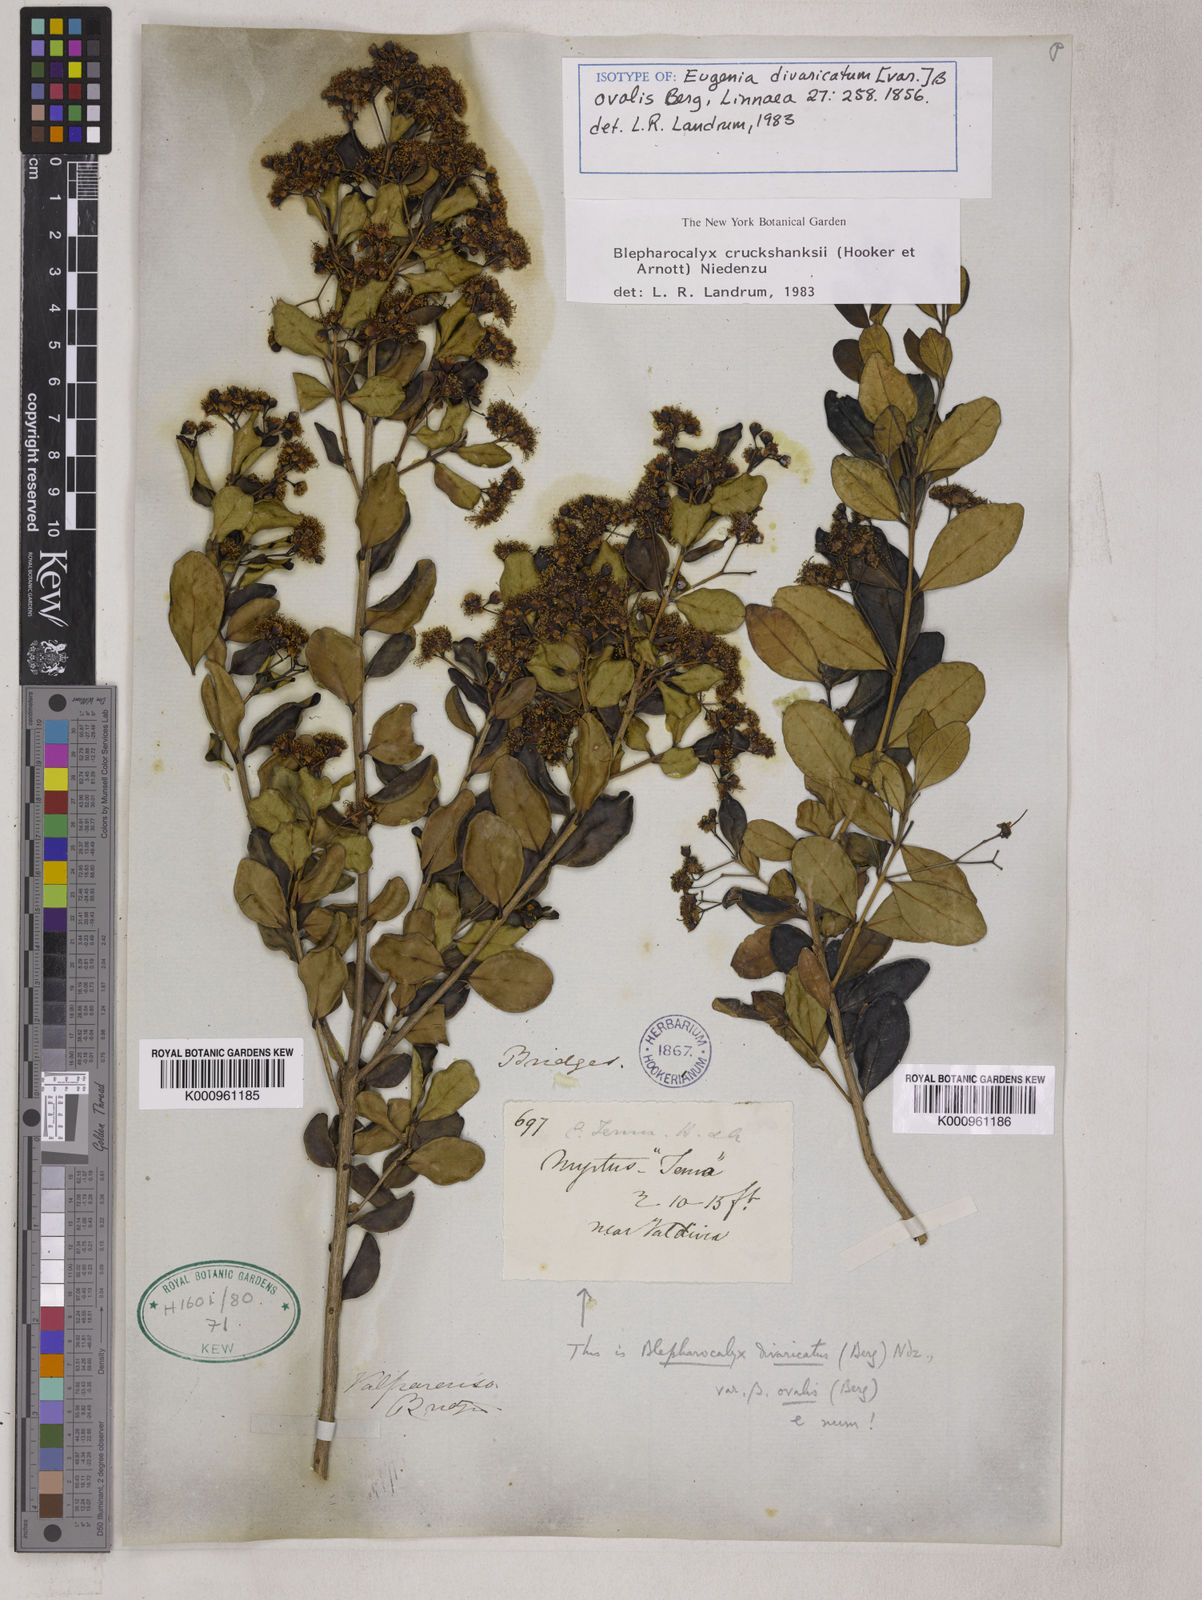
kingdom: Plantae
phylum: Tracheophyta
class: Magnoliopsida
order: Myrtales
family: Myrtaceae
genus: Blepharocalyx
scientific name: Blepharocalyx cruckshanksii
